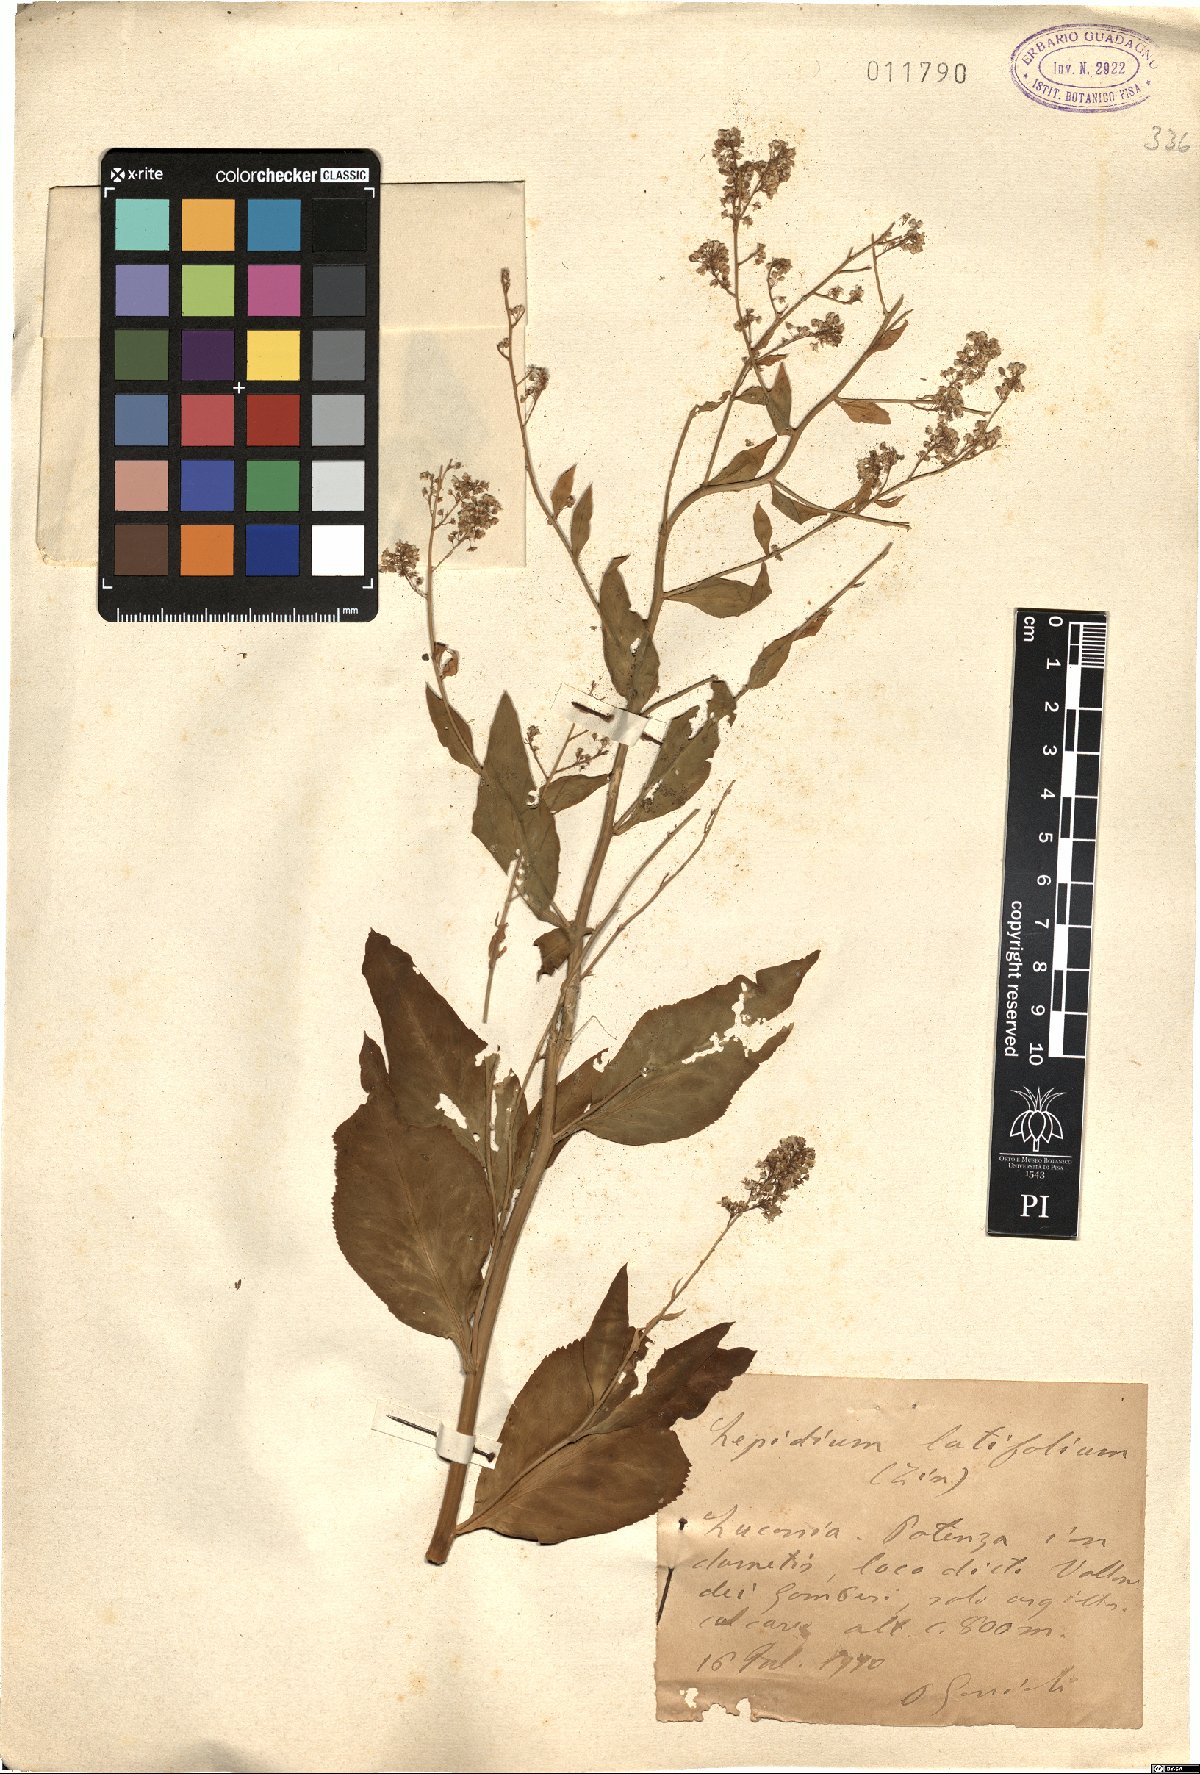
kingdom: Plantae
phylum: Tracheophyta
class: Magnoliopsida
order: Brassicales
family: Brassicaceae
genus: Lepidium
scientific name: Lepidium latifolium
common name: Dittander
